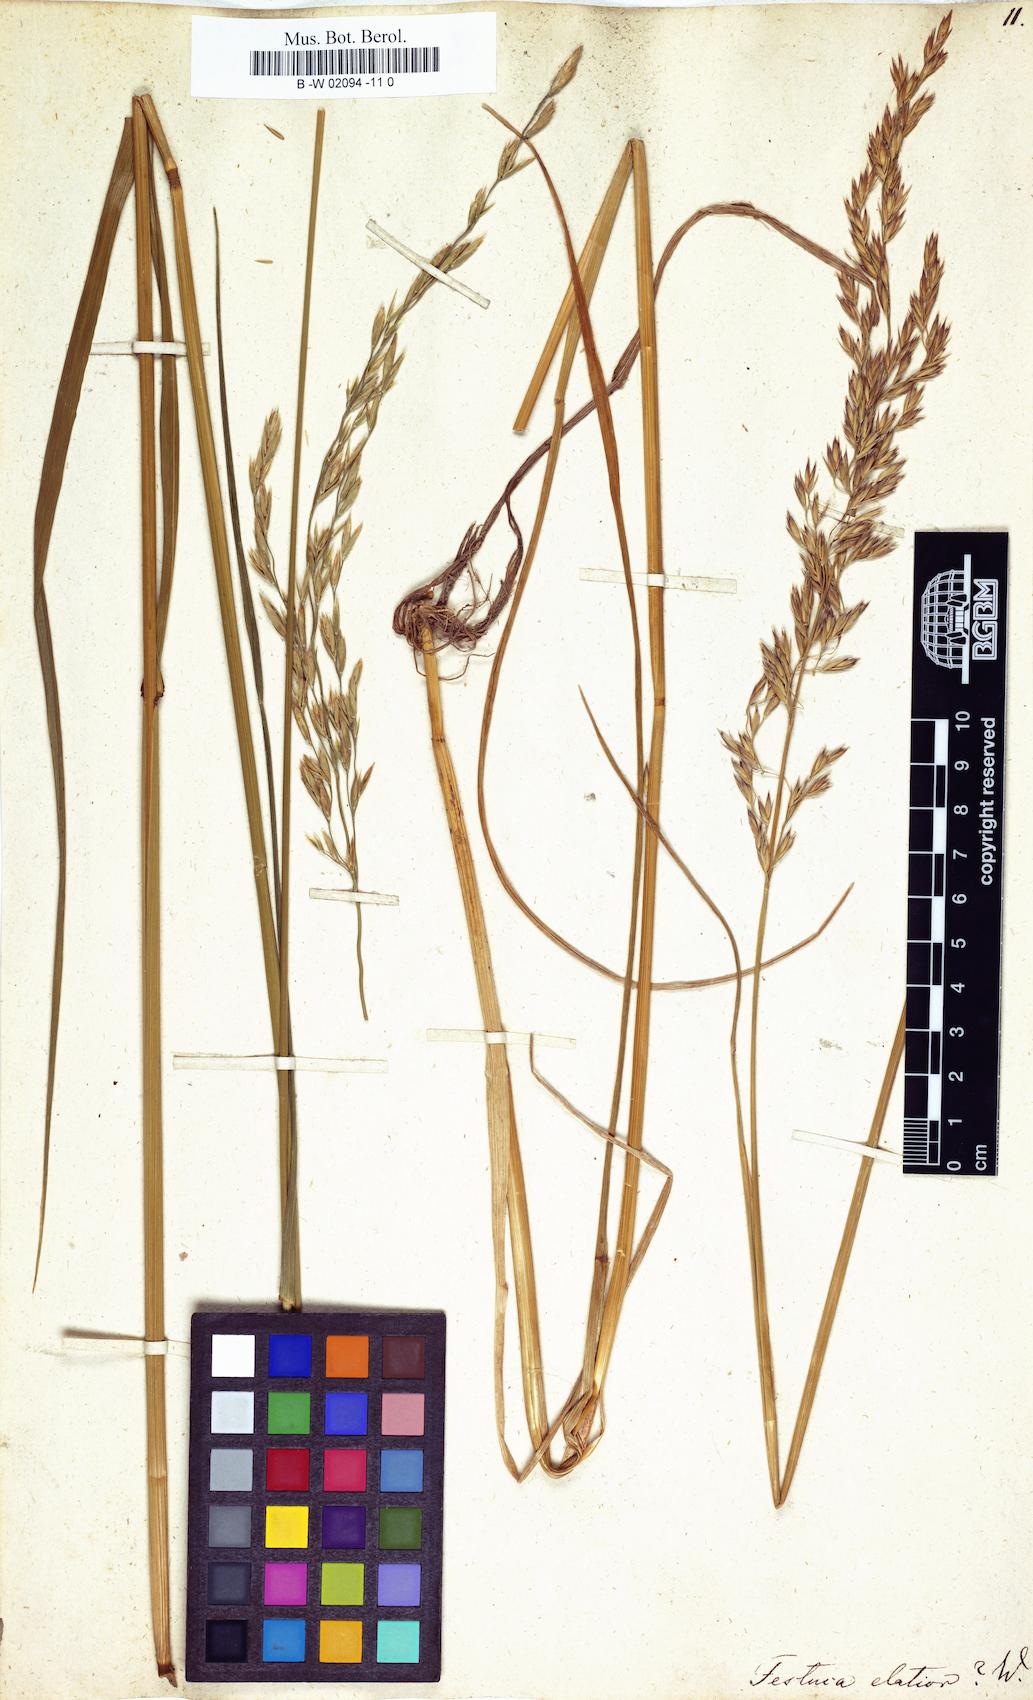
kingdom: Plantae
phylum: Tracheophyta
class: Liliopsida
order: Poales
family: Poaceae
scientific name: Poaceae
